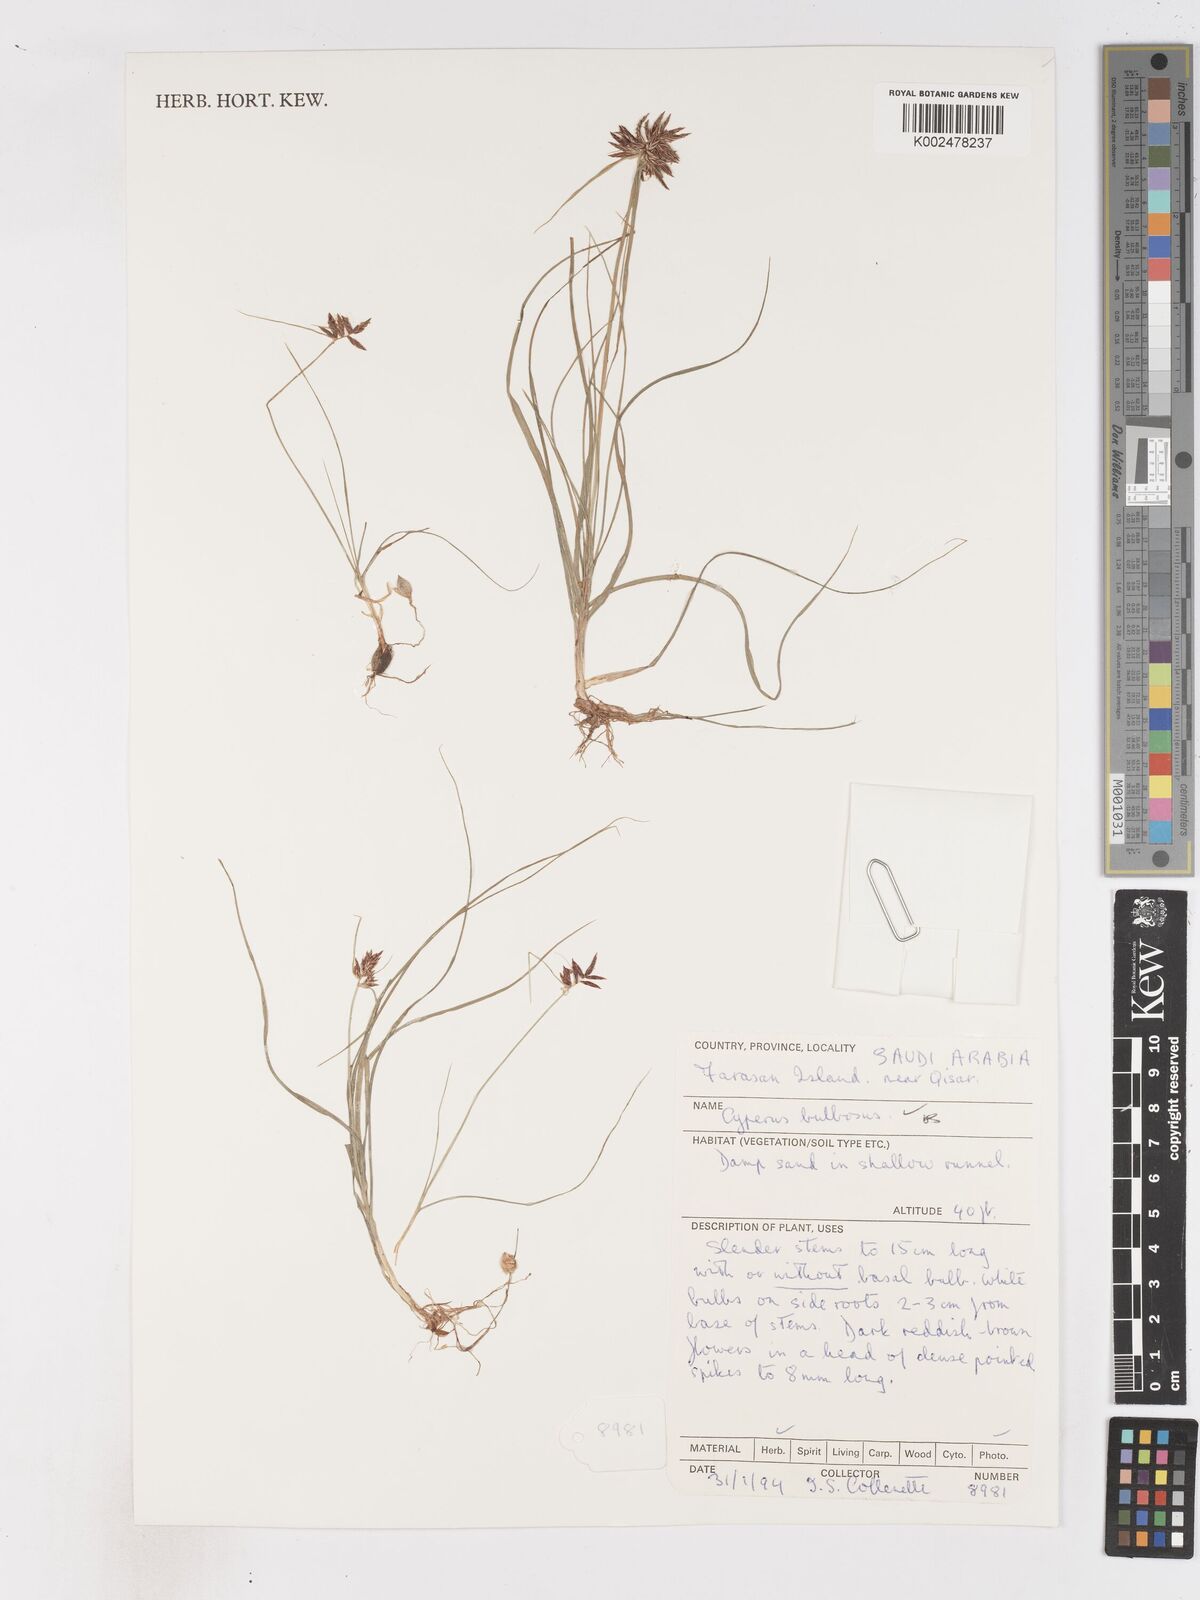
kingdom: Plantae
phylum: Tracheophyta
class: Liliopsida
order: Poales
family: Cyperaceae
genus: Cyperus
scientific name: Cyperus bulbosus
